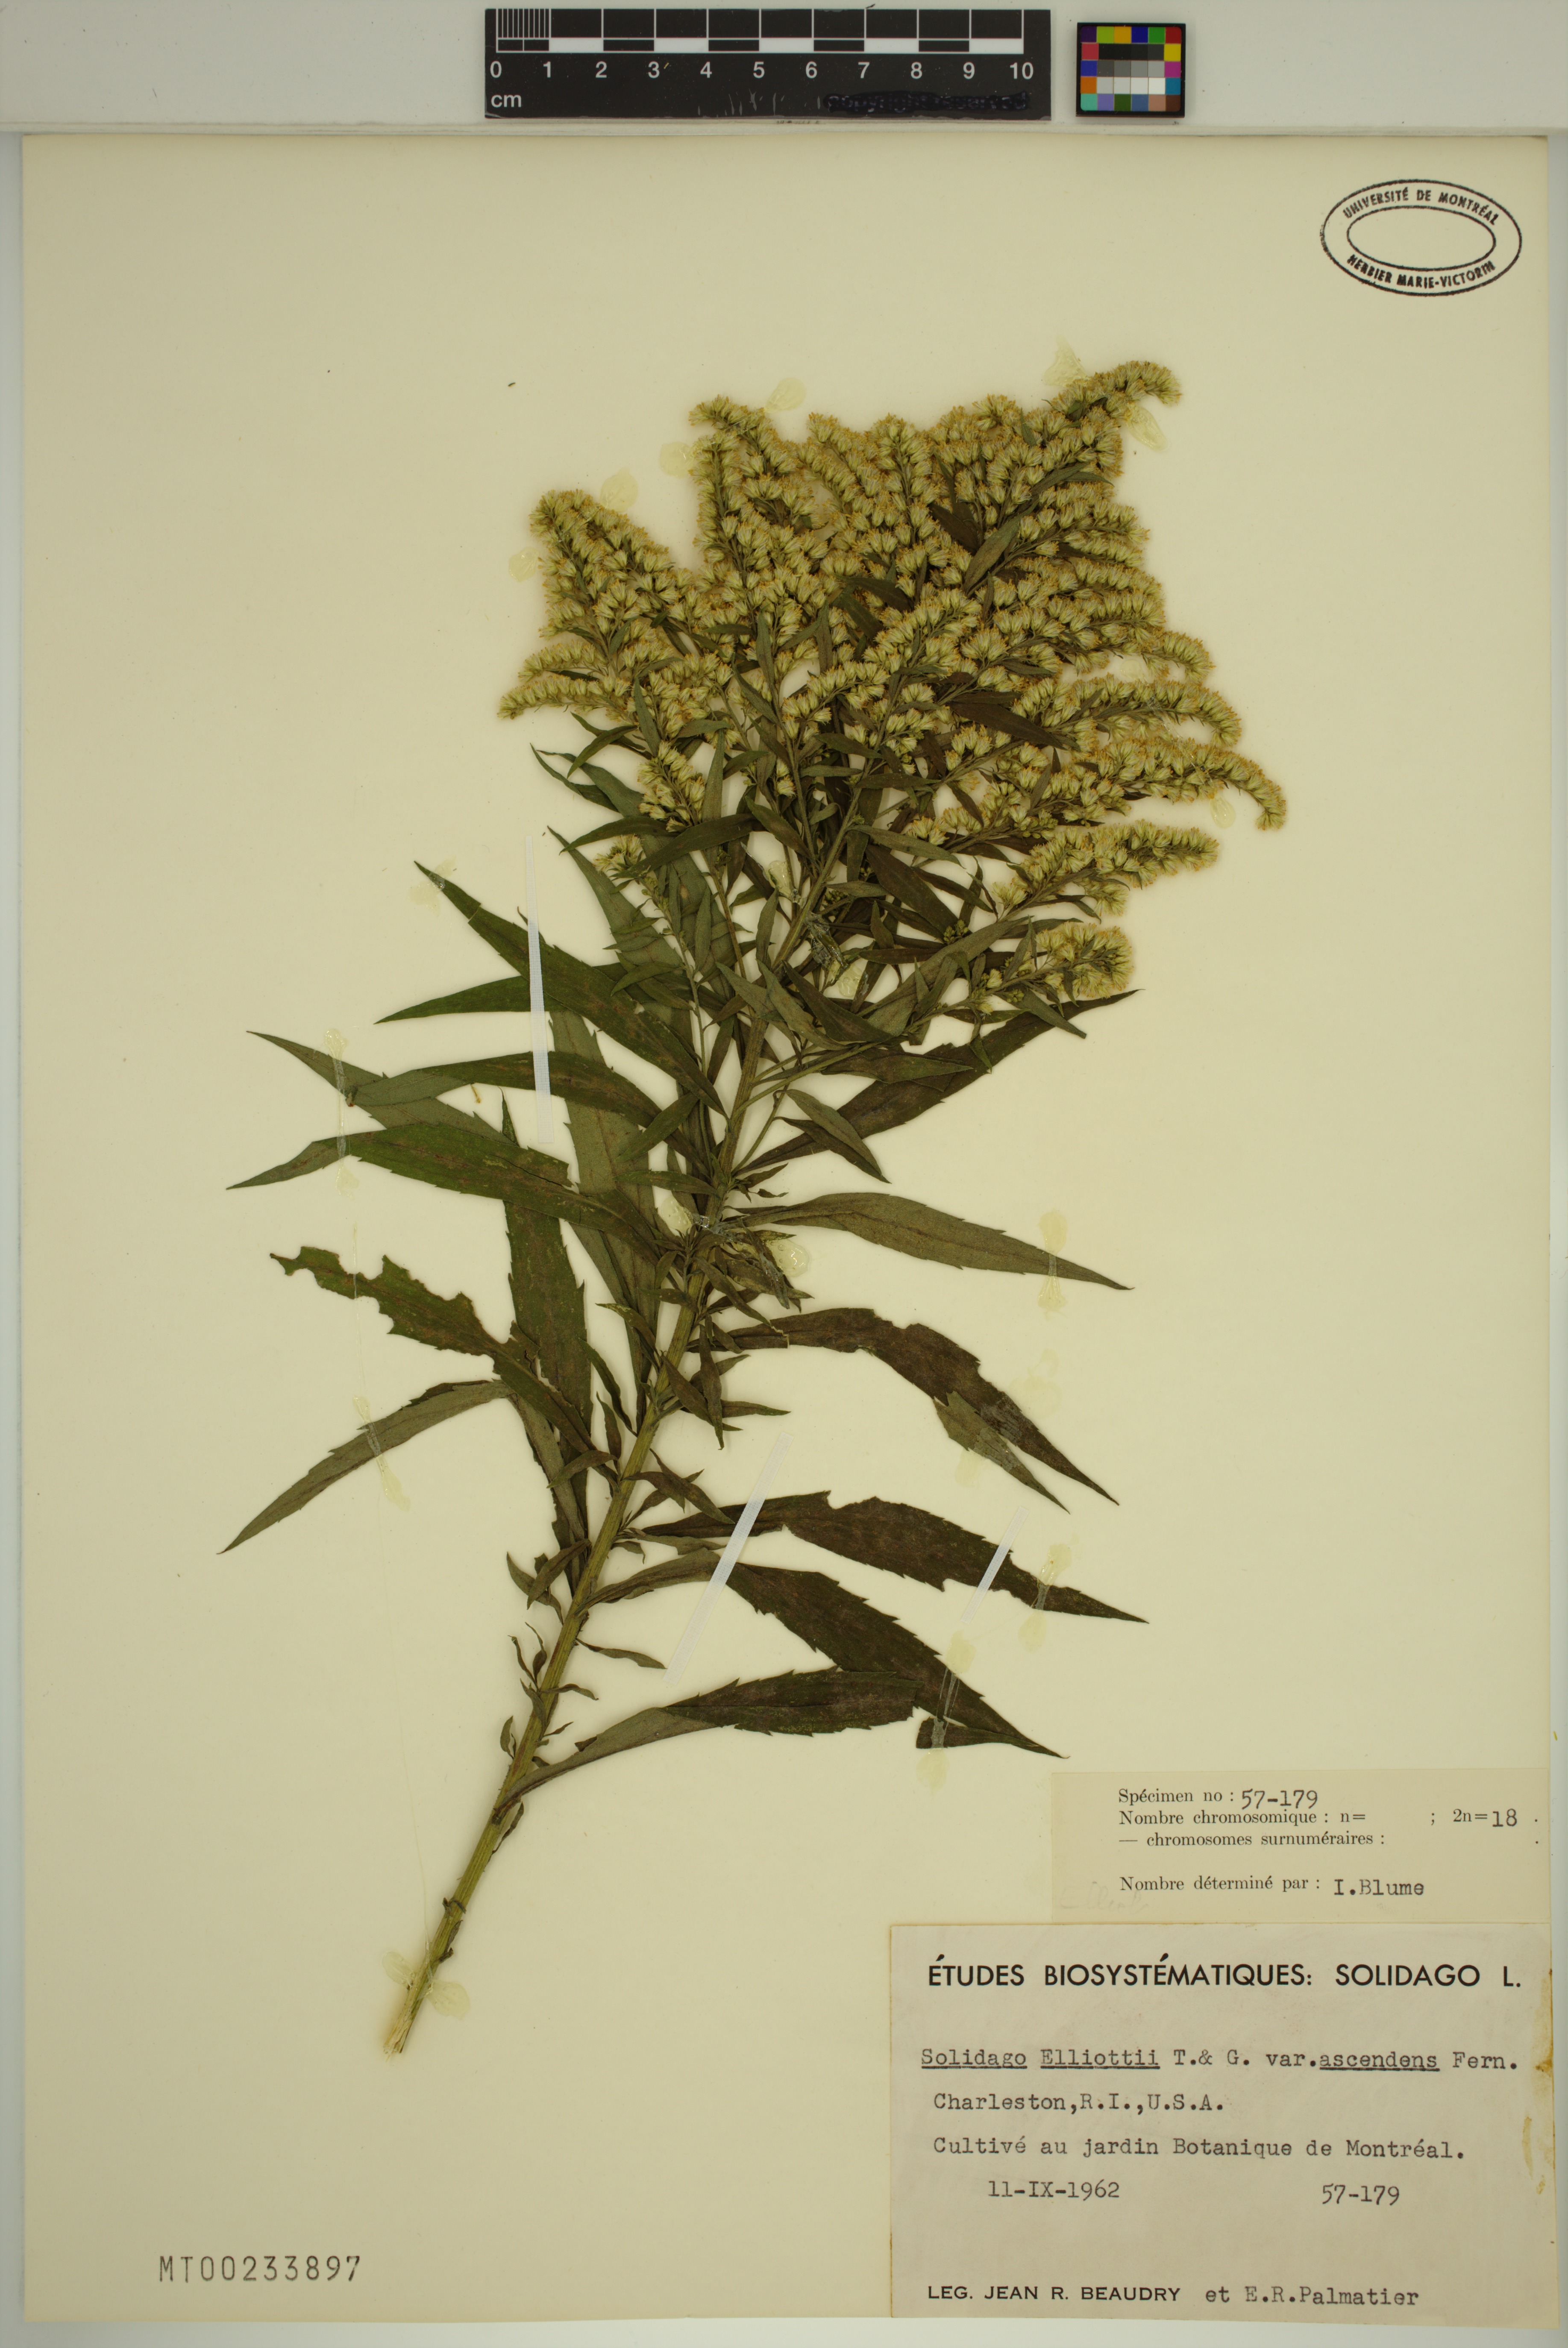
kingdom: Plantae
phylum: Tracheophyta
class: Magnoliopsida
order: Asterales
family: Asteraceae
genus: Solidago
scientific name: Solidago latissimifolia
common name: Elliott's goldenrod
